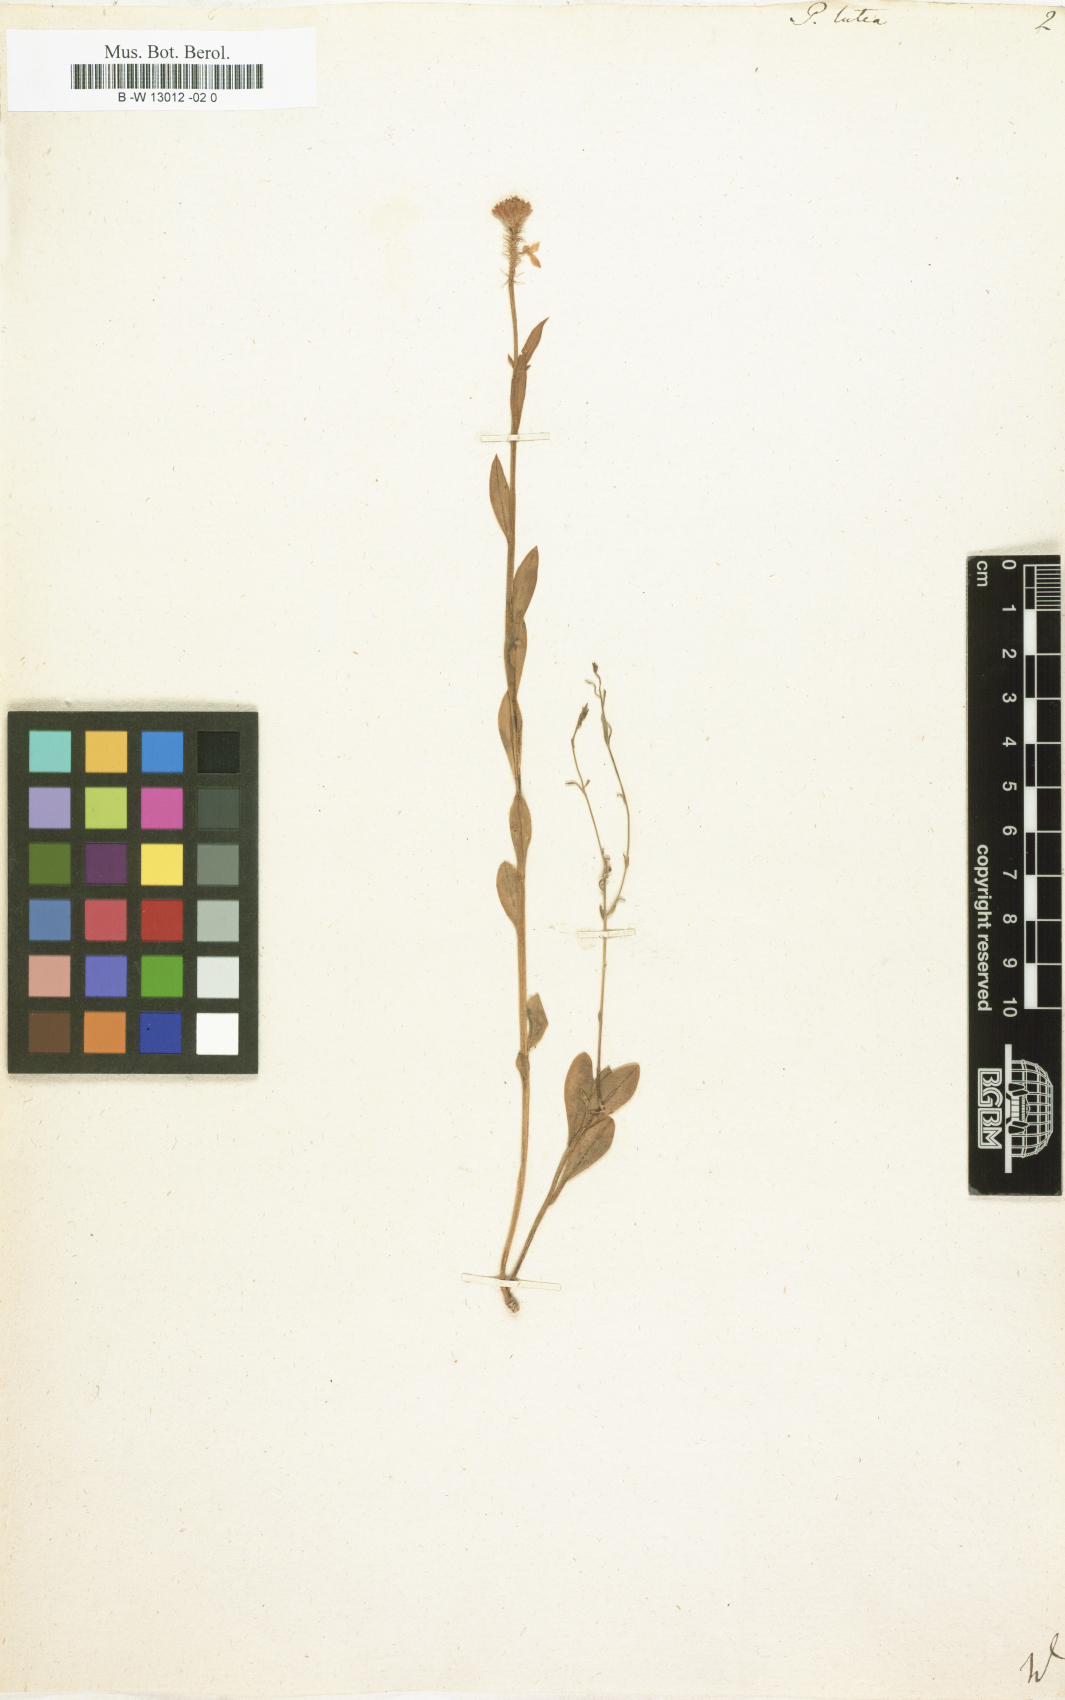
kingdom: Plantae
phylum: Tracheophyta
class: Magnoliopsida
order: Fabales
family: Polygalaceae
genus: Polygala
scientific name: Polygala lutea
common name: Orange milkwort
